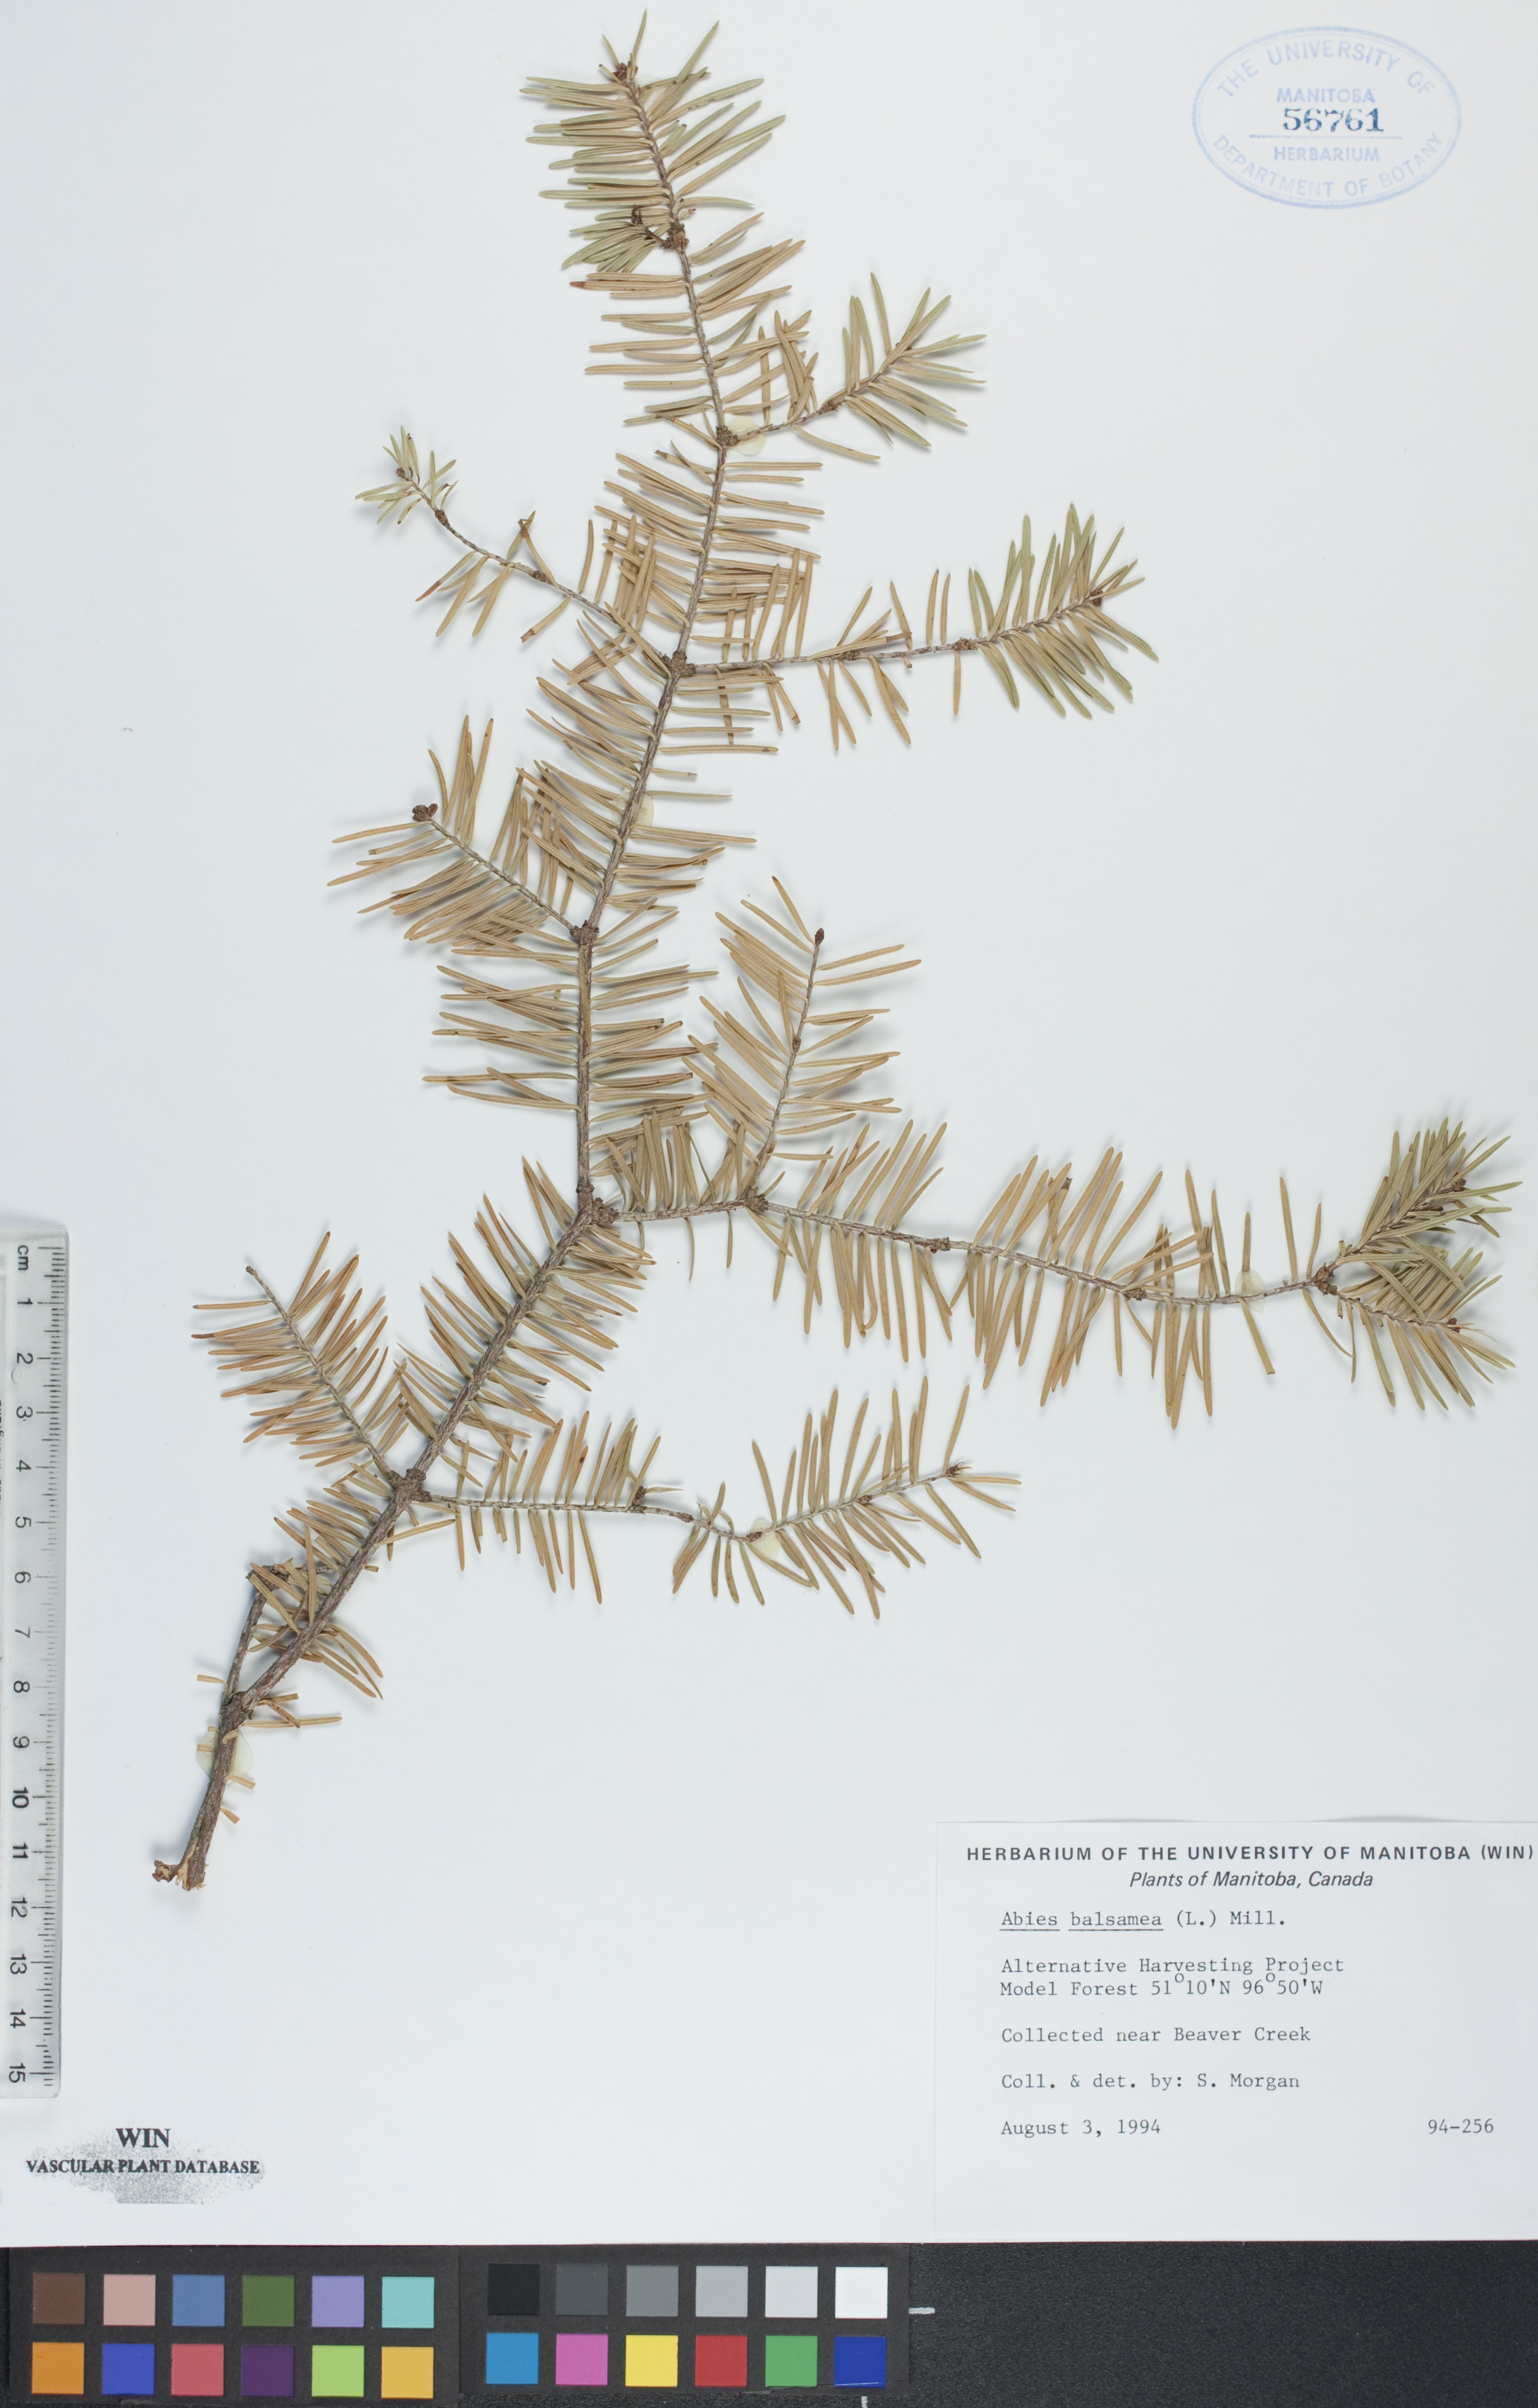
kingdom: Plantae
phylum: Tracheophyta
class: Pinopsida
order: Pinales
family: Pinaceae
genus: Abies
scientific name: Abies balsamea
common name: Balsam fir
